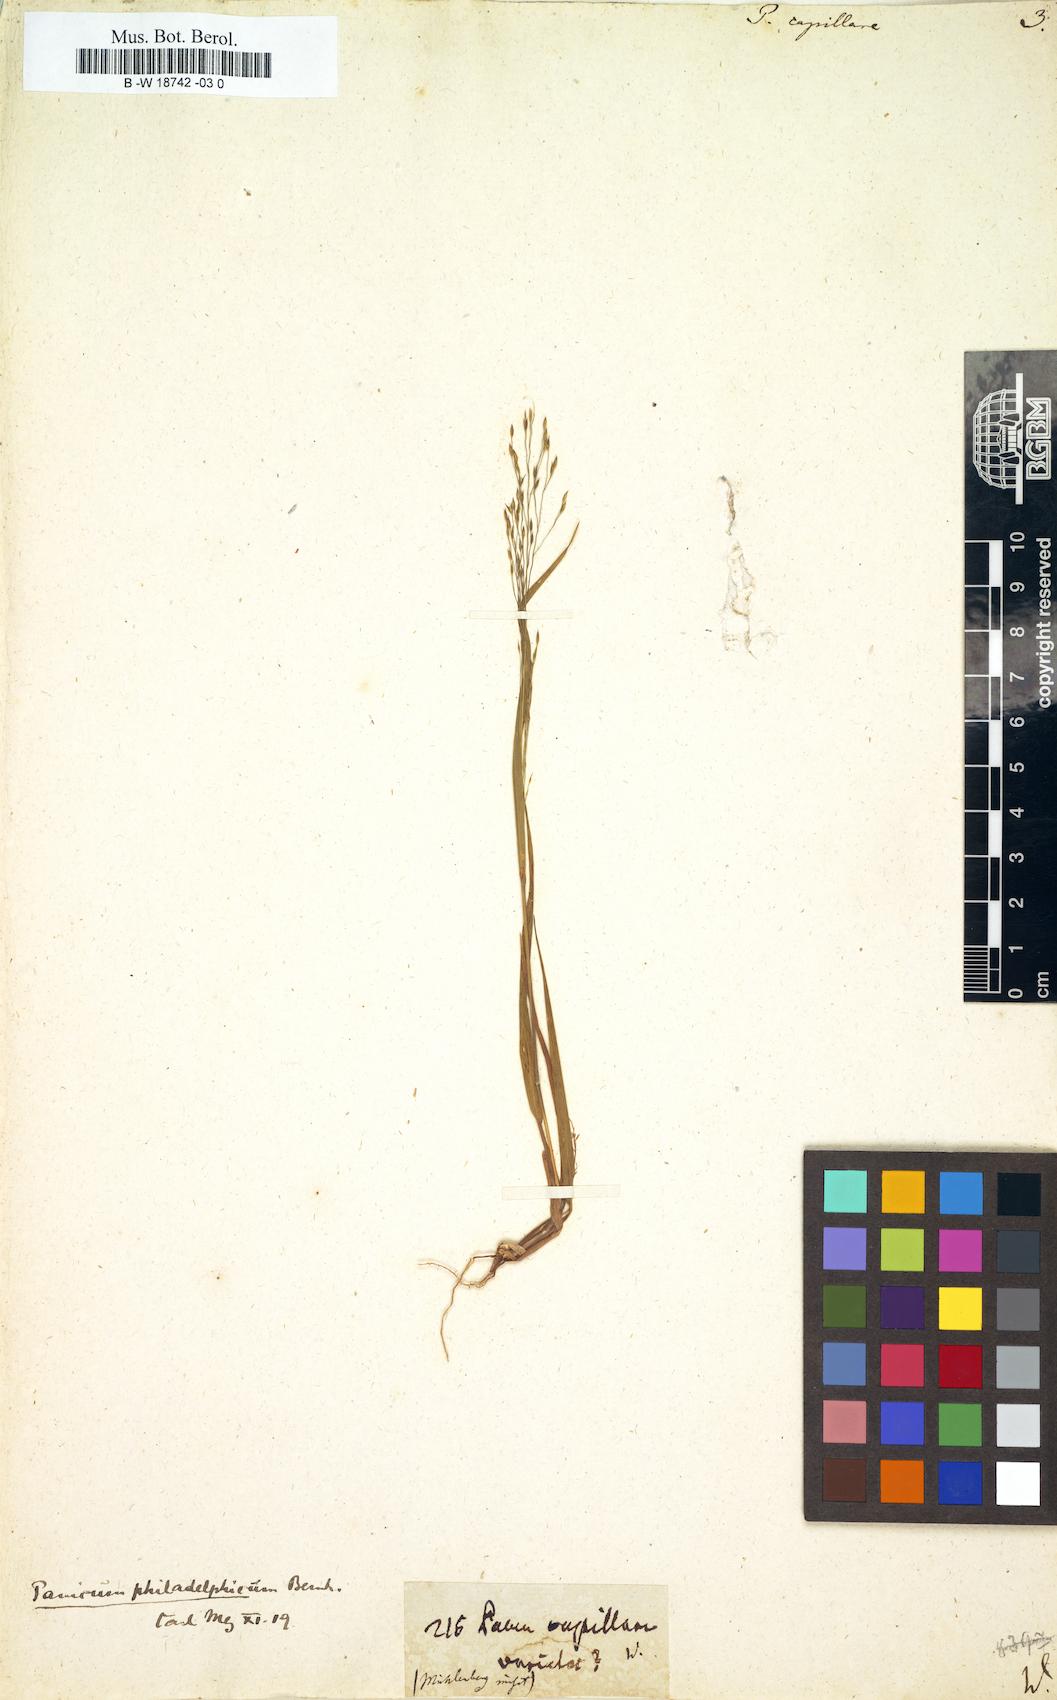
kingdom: Plantae
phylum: Tracheophyta
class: Liliopsida
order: Poales
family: Poaceae
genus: Panicum
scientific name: Panicum capillare
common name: Witch-grass
